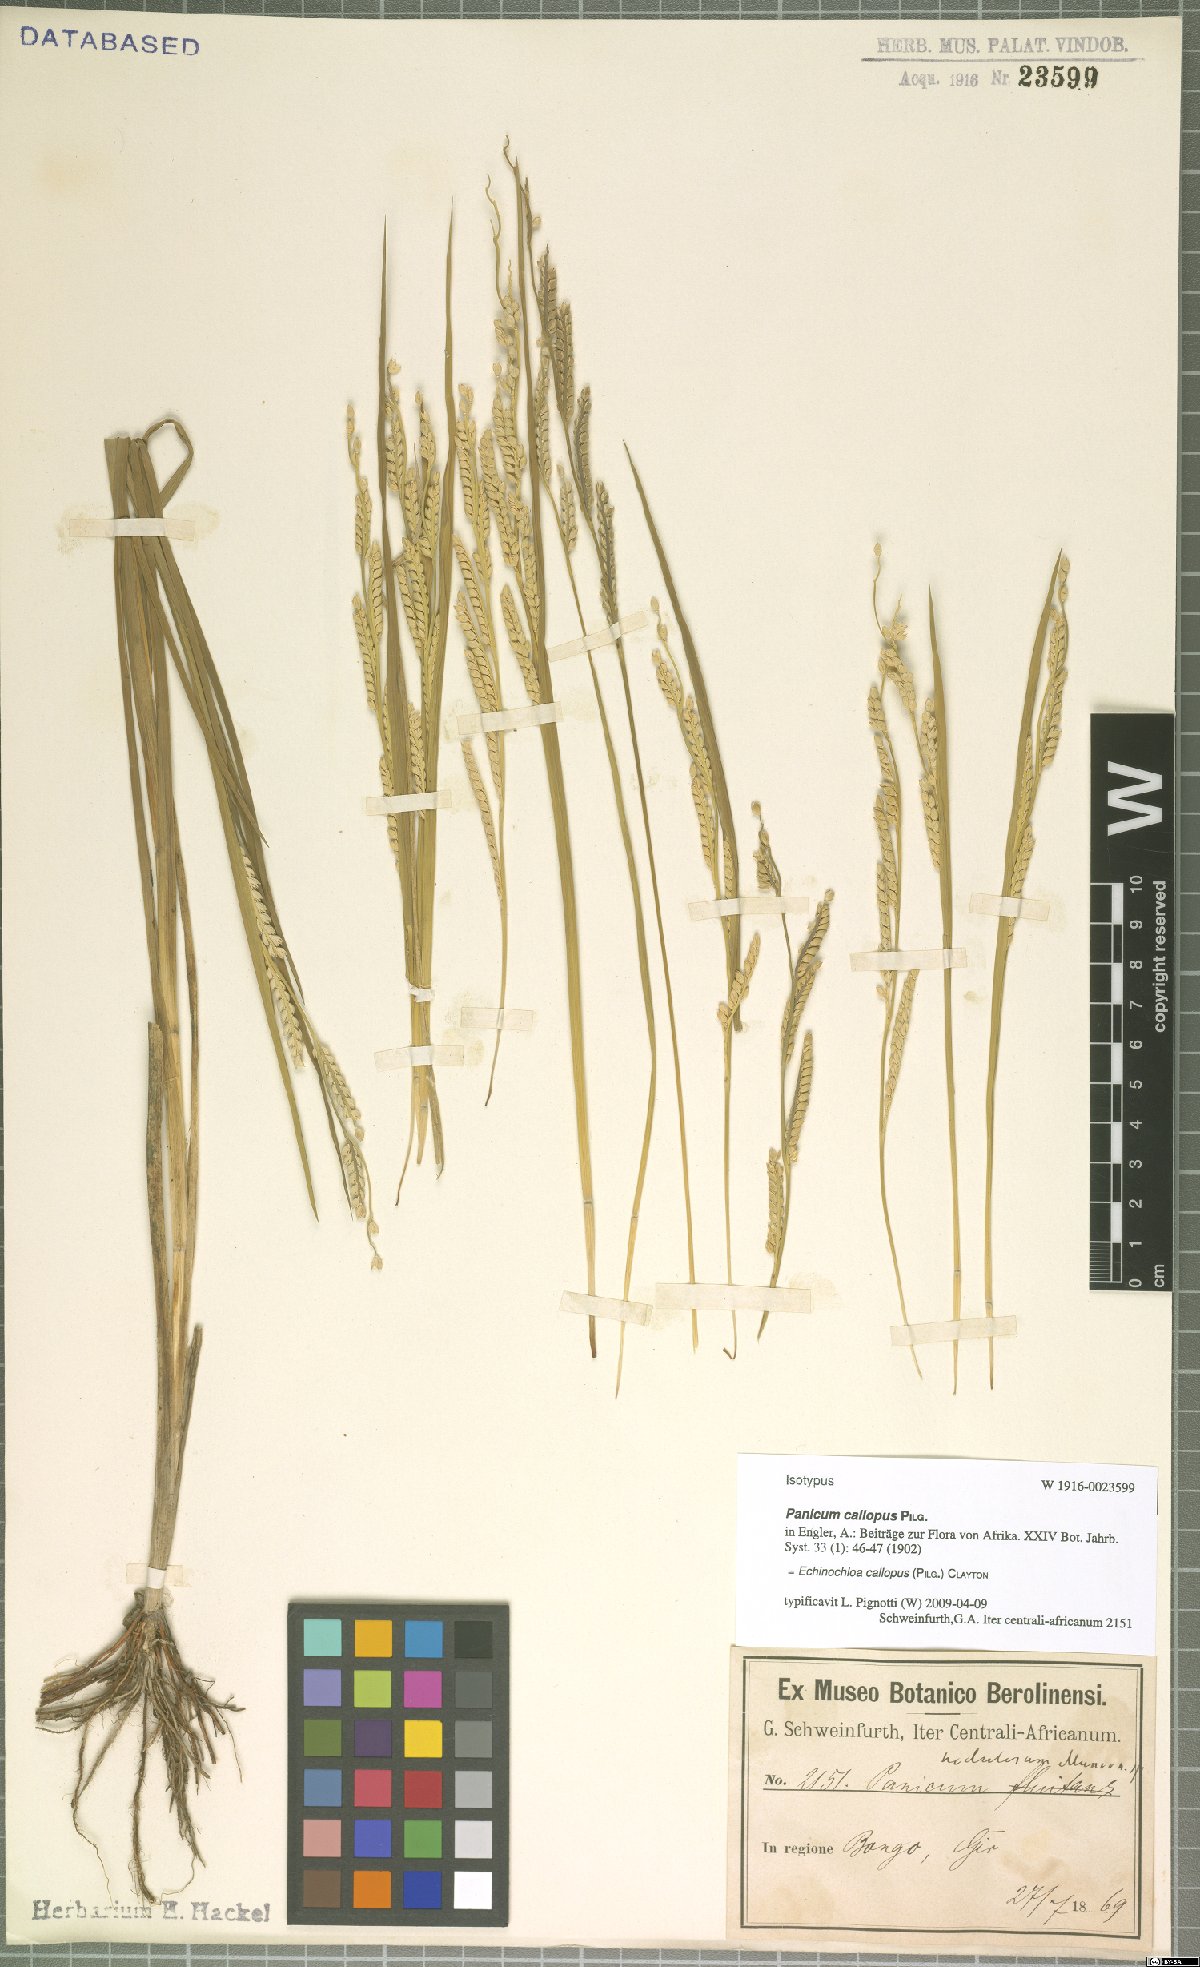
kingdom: Plantae
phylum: Tracheophyta
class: Liliopsida
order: Poales
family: Poaceae
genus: Echinochloa
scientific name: Echinochloa callopus
